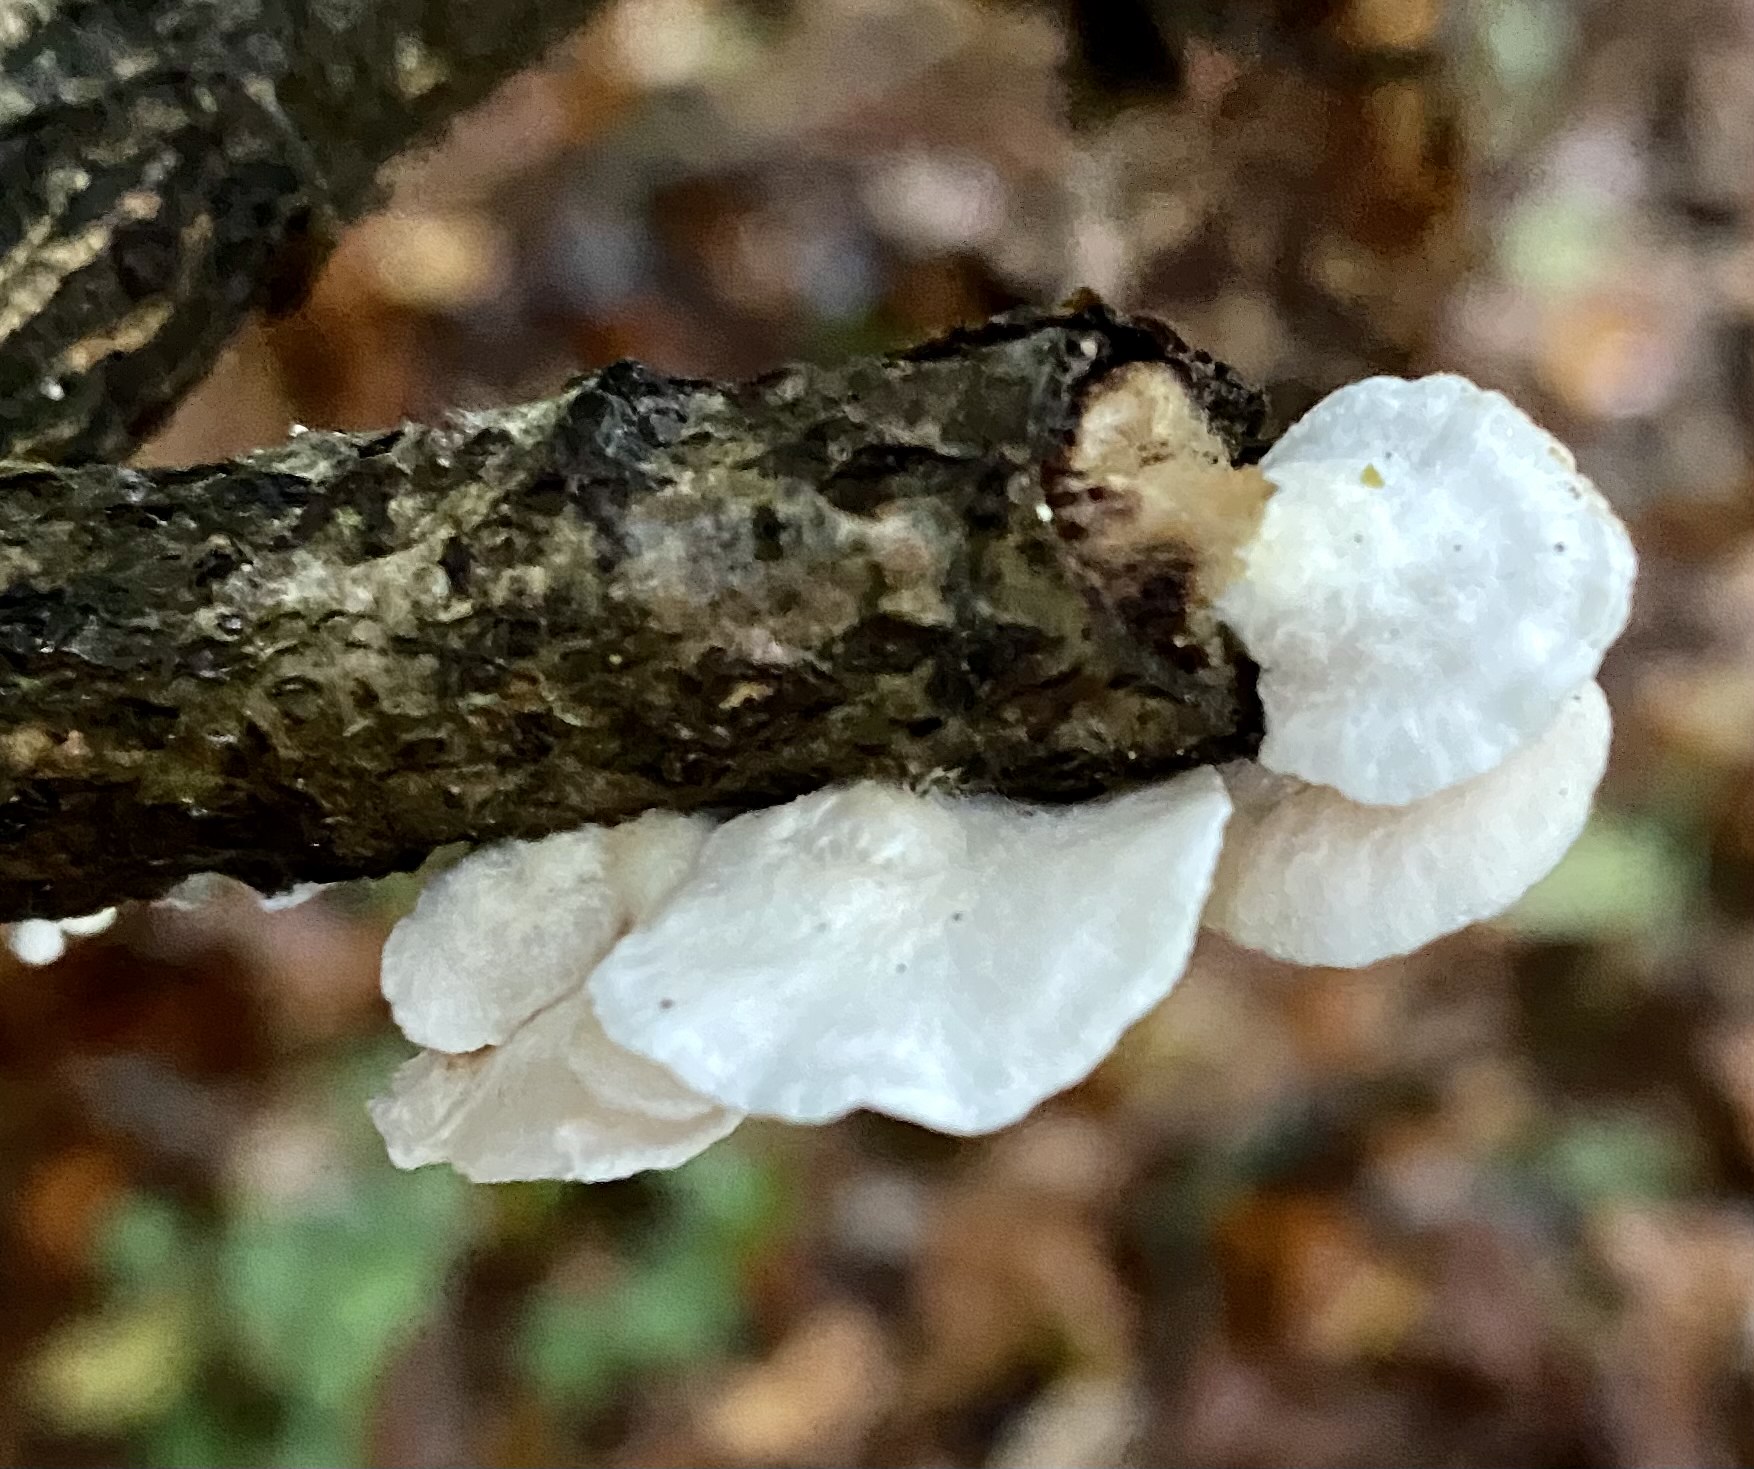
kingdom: Fungi
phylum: Basidiomycota
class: Agaricomycetes
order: Agaricales
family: Crepidotaceae
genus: Crepidotus
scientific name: Crepidotus
